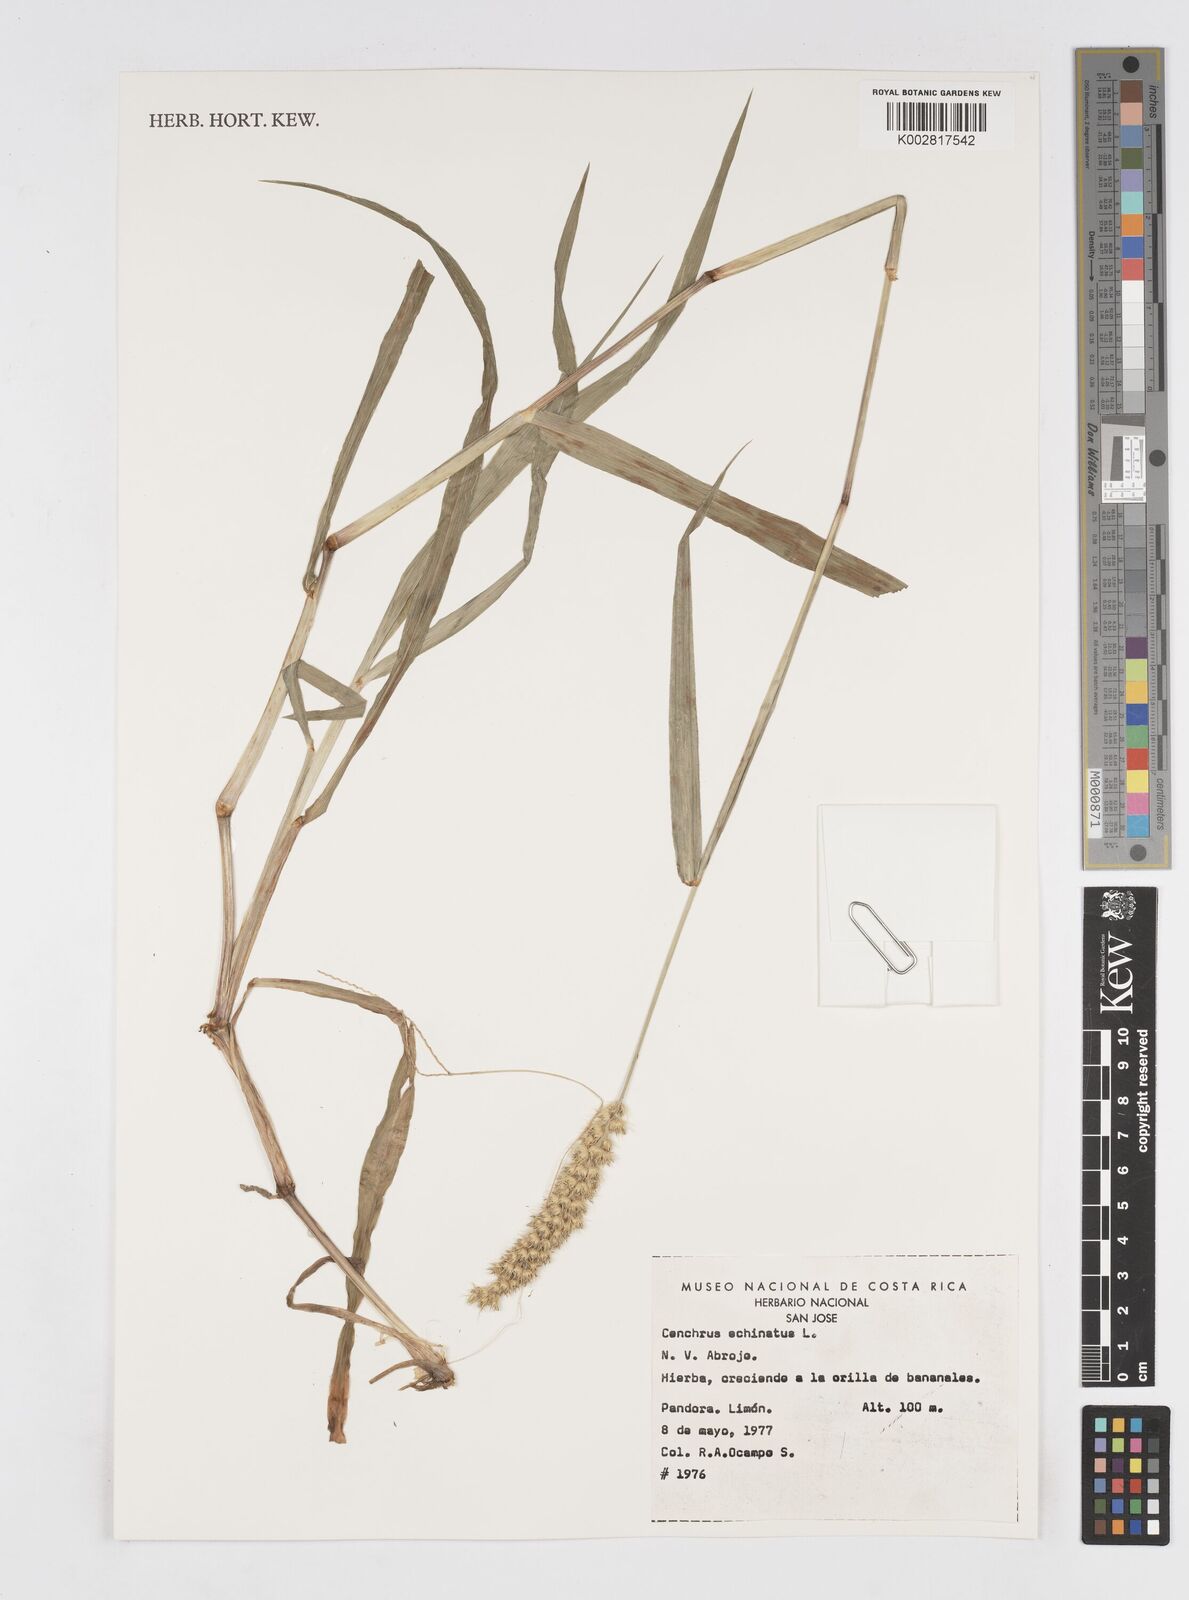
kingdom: Plantae
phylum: Tracheophyta
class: Liliopsida
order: Poales
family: Poaceae
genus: Cenchrus
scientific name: Cenchrus
